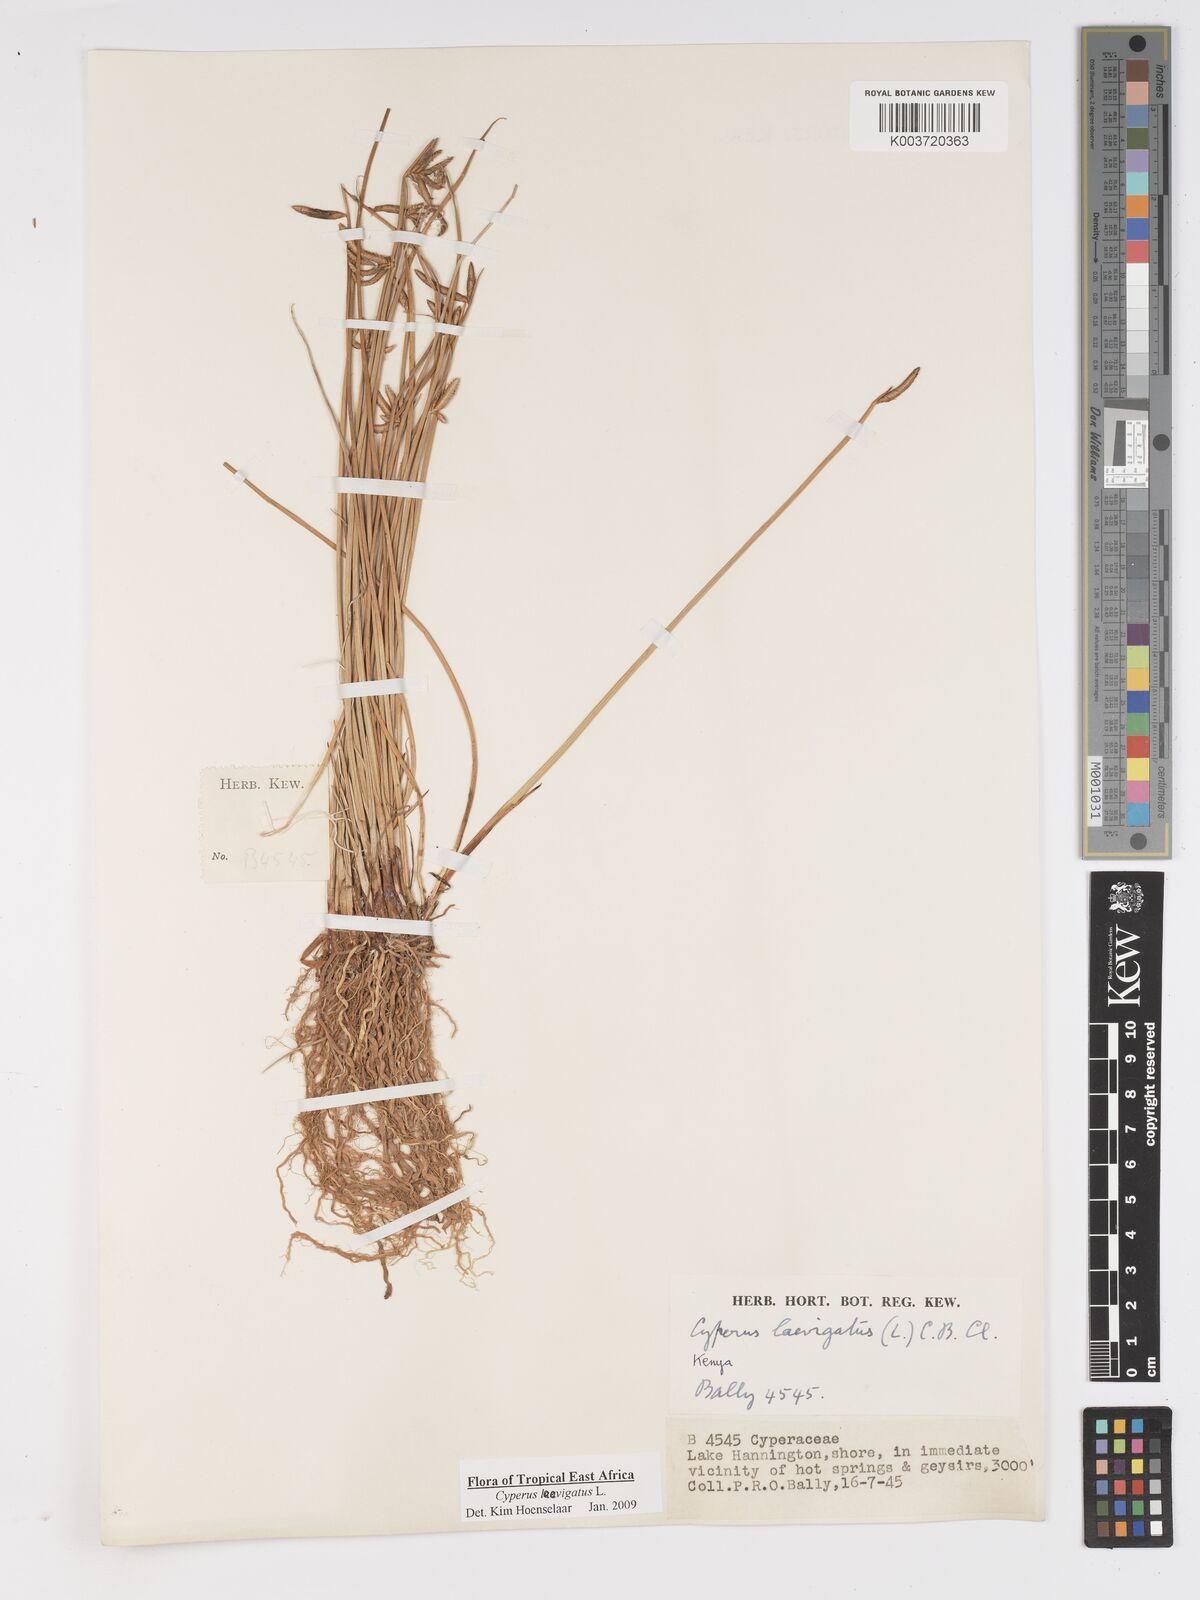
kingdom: Plantae
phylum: Tracheophyta
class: Liliopsida
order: Poales
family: Cyperaceae
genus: Cyperus
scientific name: Cyperus laevigatus
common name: Smooth flat sedge
